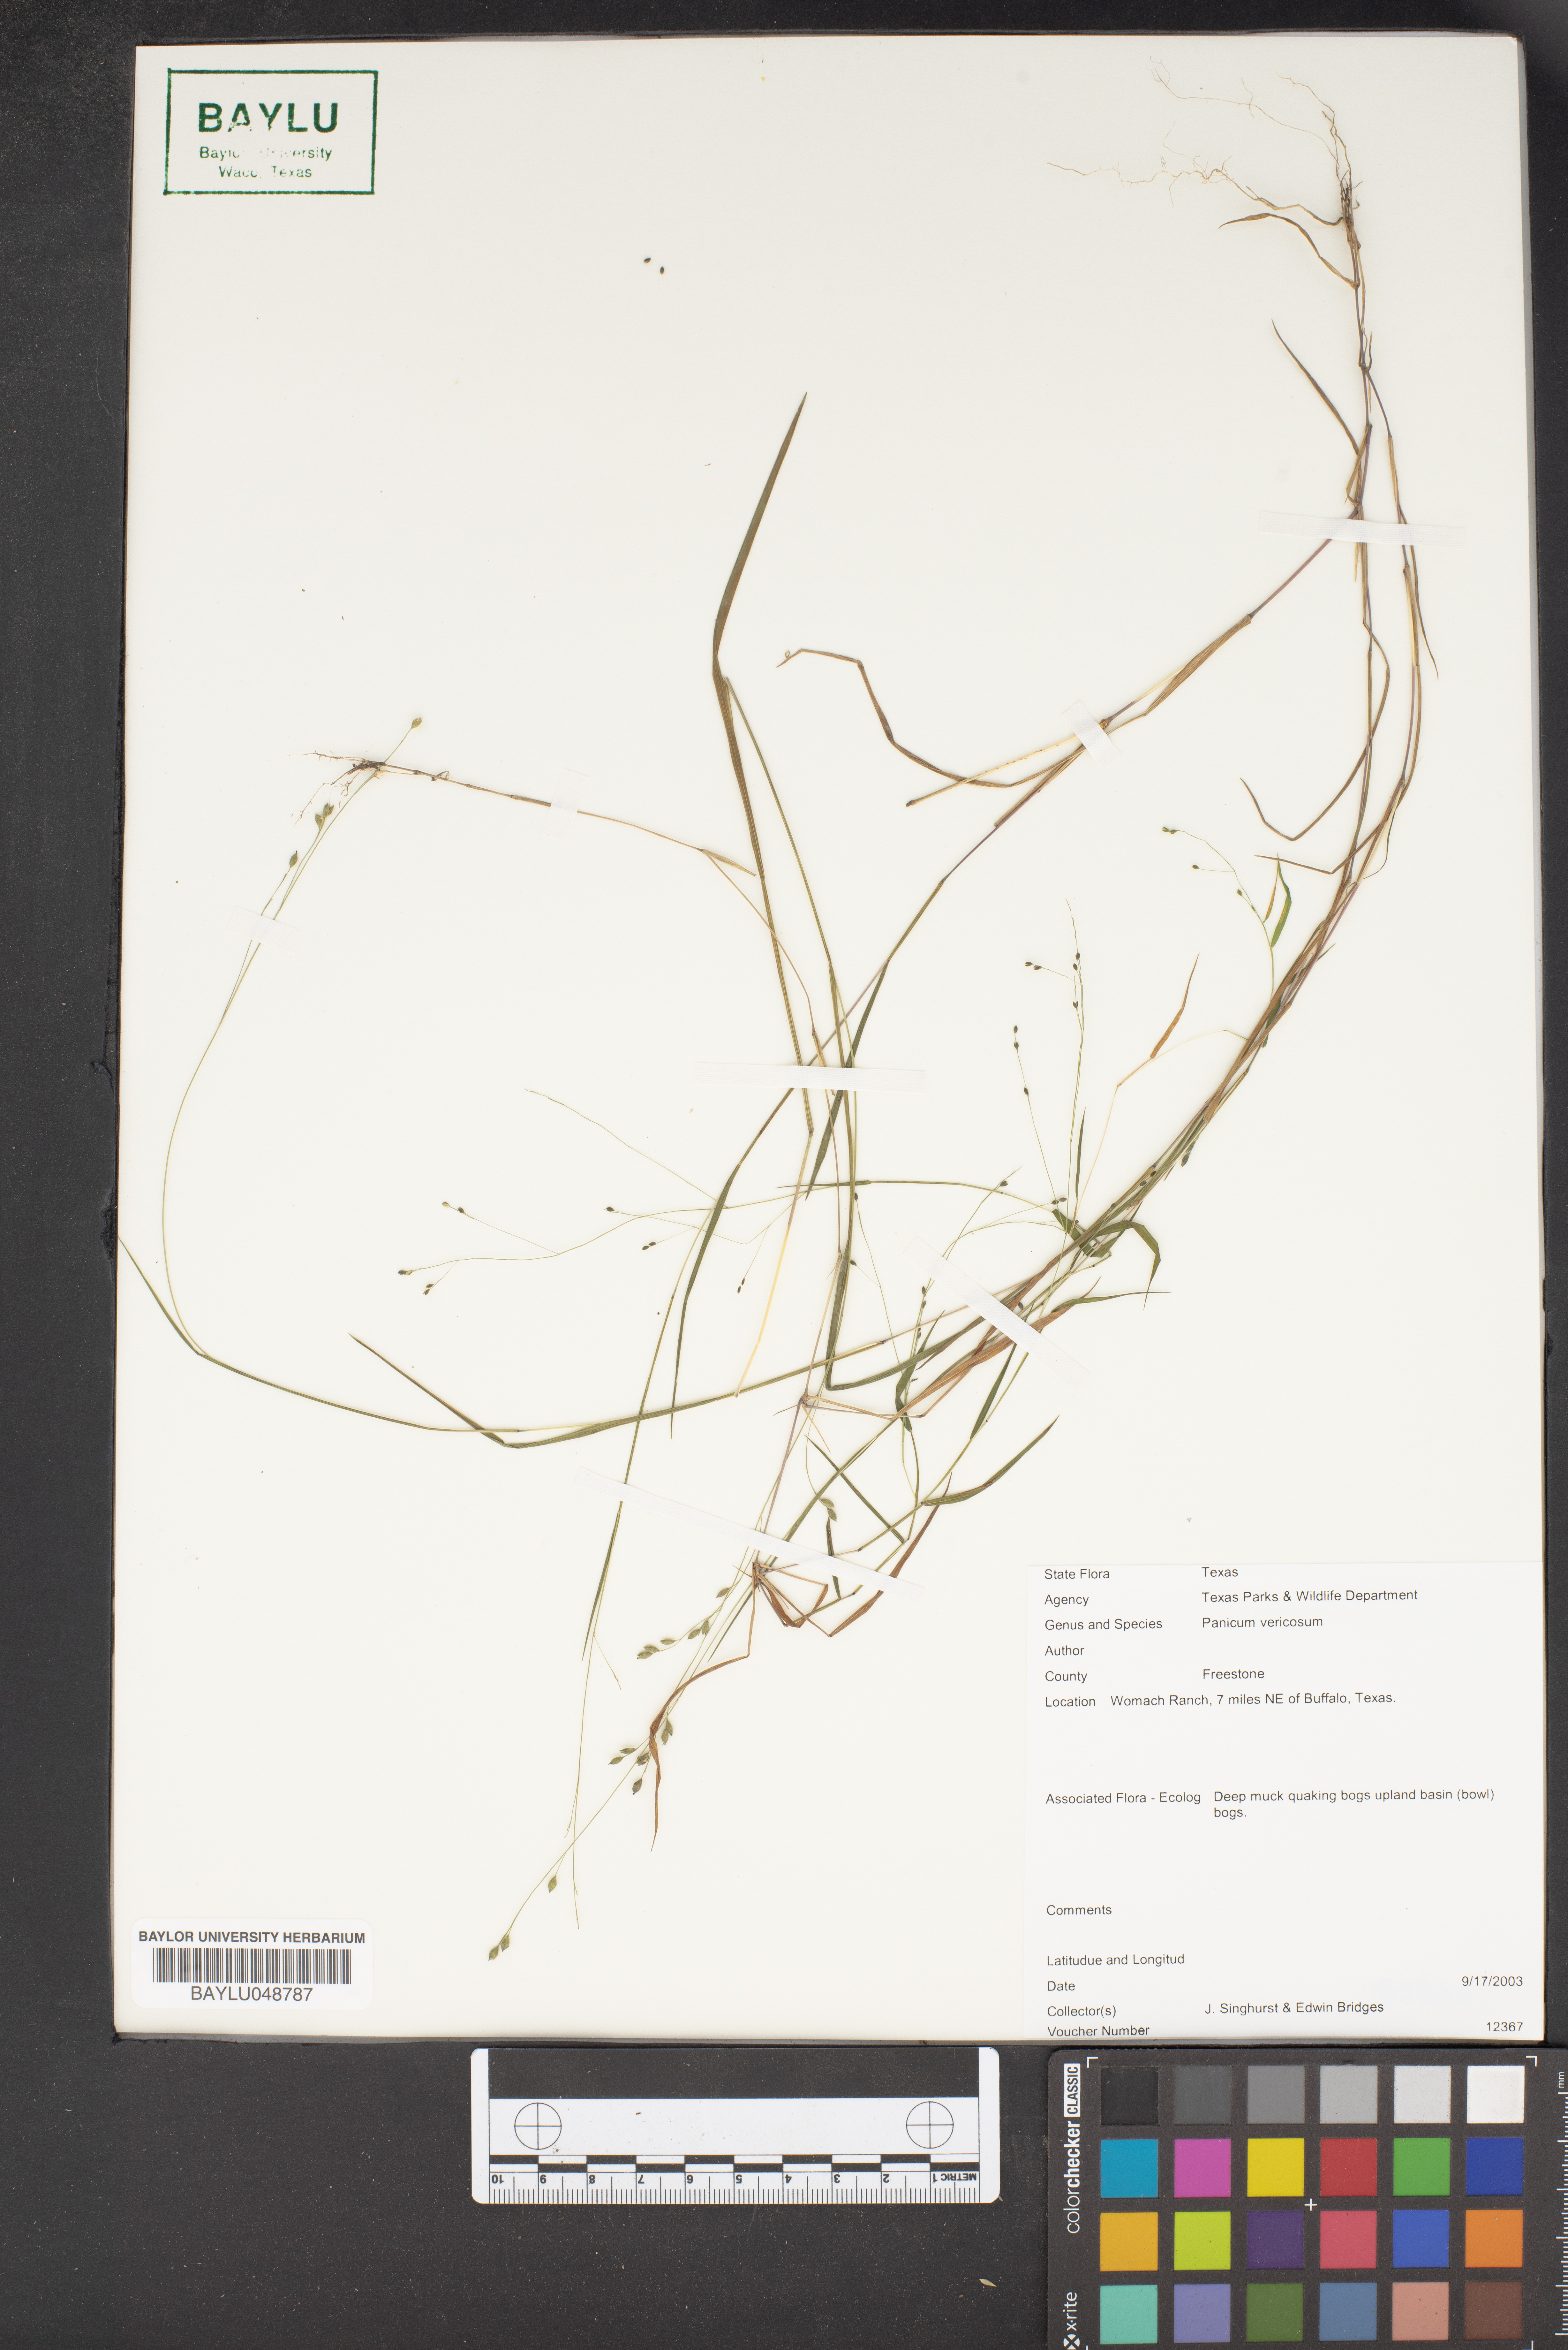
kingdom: Plantae
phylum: Tracheophyta
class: Liliopsida
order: Poales
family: Poaceae
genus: Kellochloa
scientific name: Kellochloa verrucosa
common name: Warty panic grass
